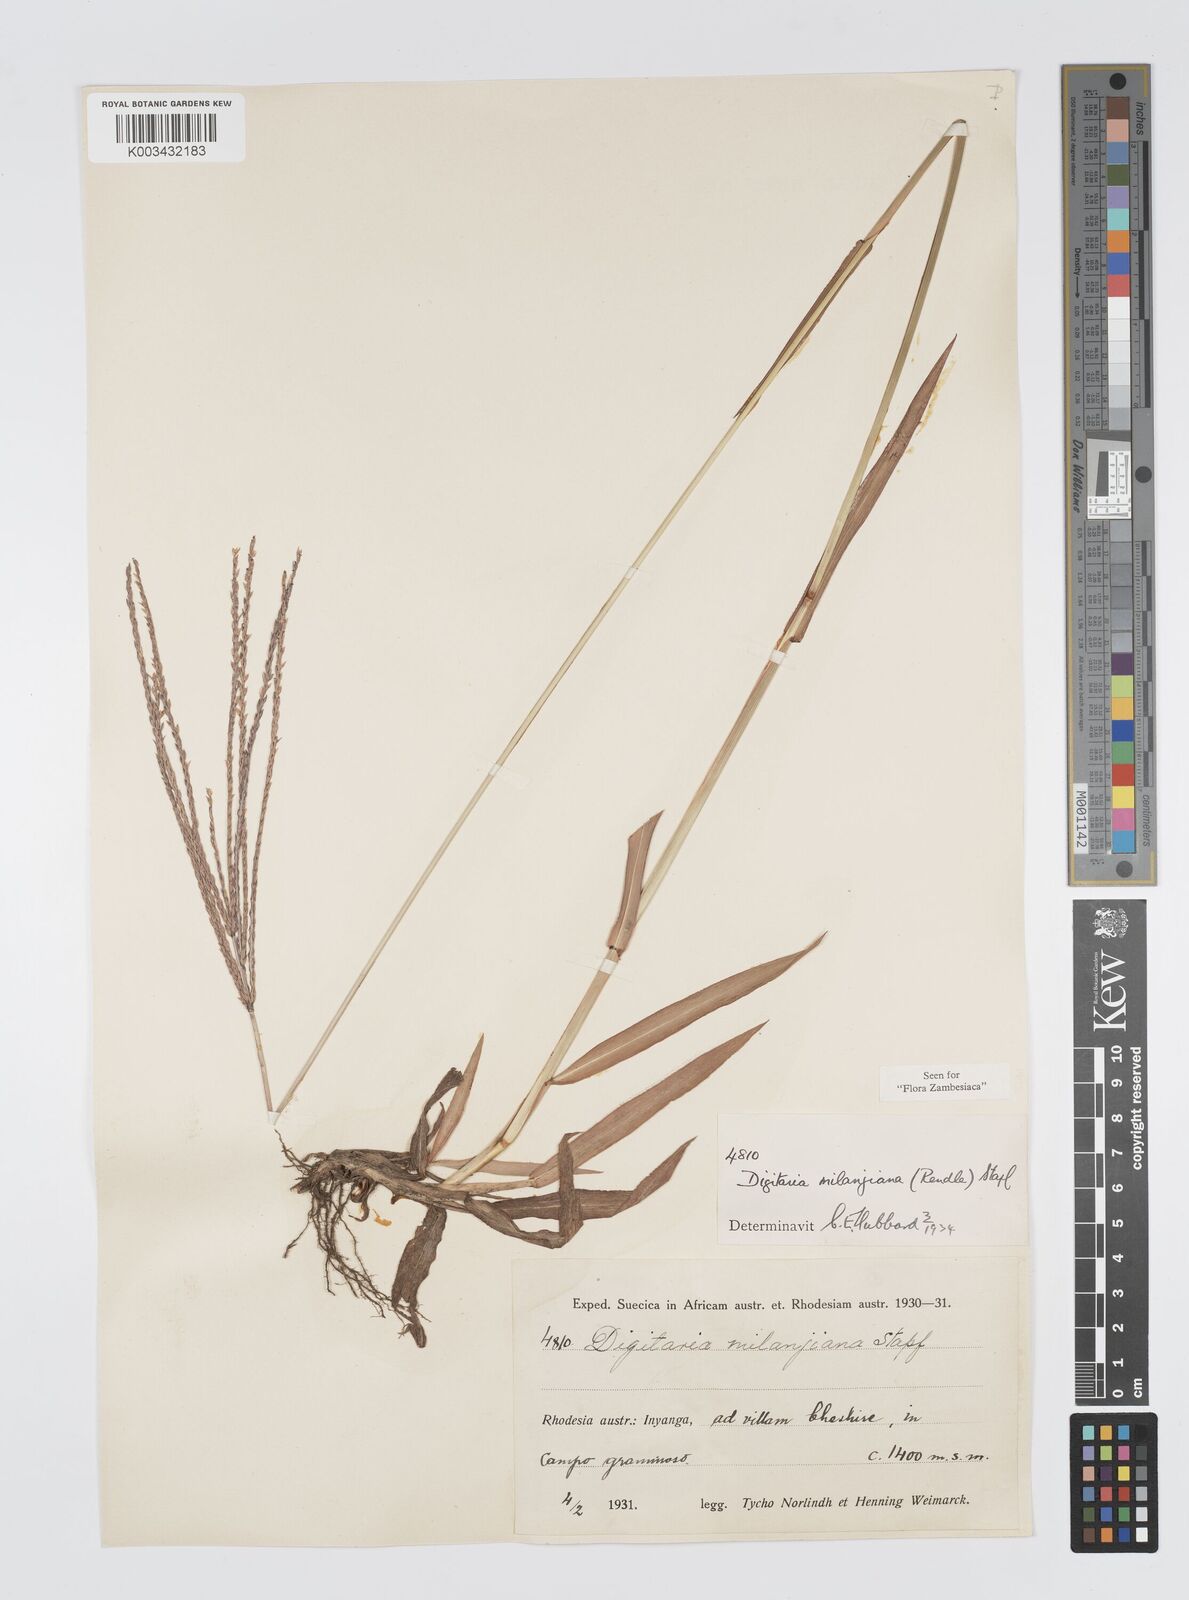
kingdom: Plantae
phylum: Tracheophyta
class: Liliopsida
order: Poales
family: Poaceae
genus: Digitaria
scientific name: Digitaria milanjiana
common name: Madagascar crabgrass
